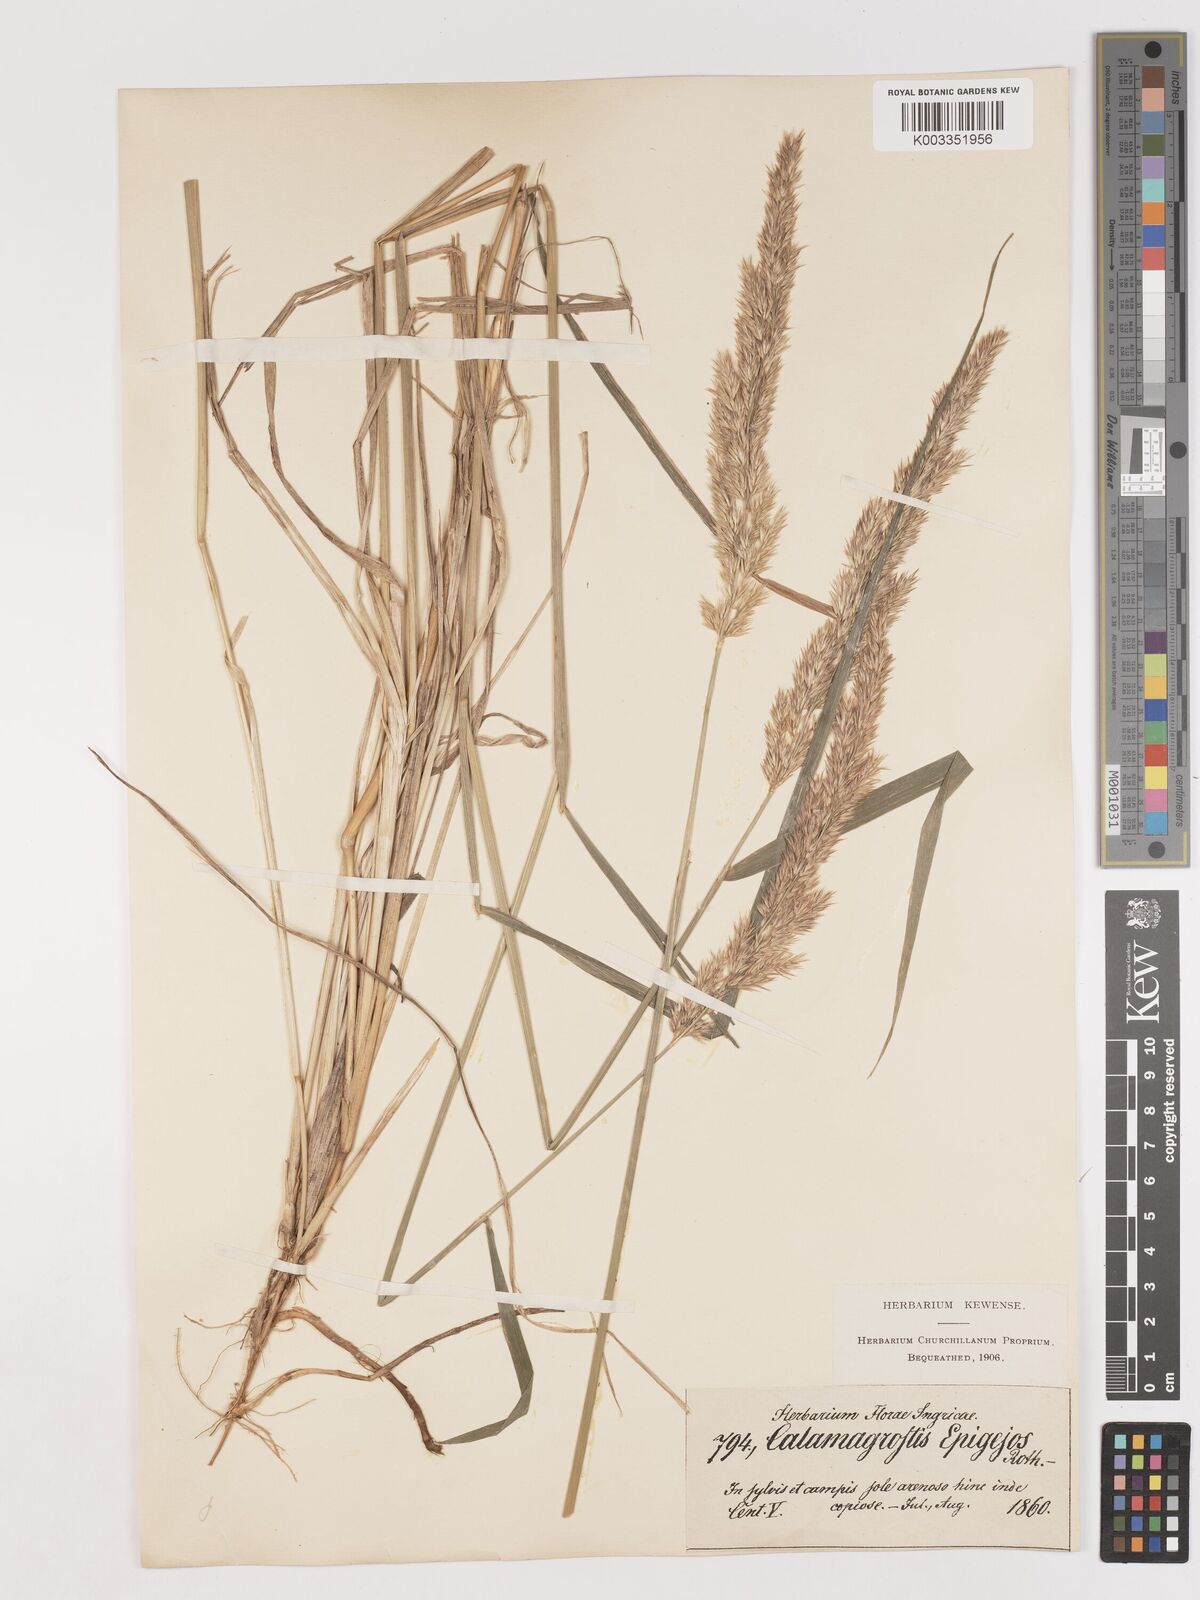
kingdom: Plantae
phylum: Tracheophyta
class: Liliopsida
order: Poales
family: Poaceae
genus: Calamagrostis
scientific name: Calamagrostis epigejos
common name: Wood small-reed
